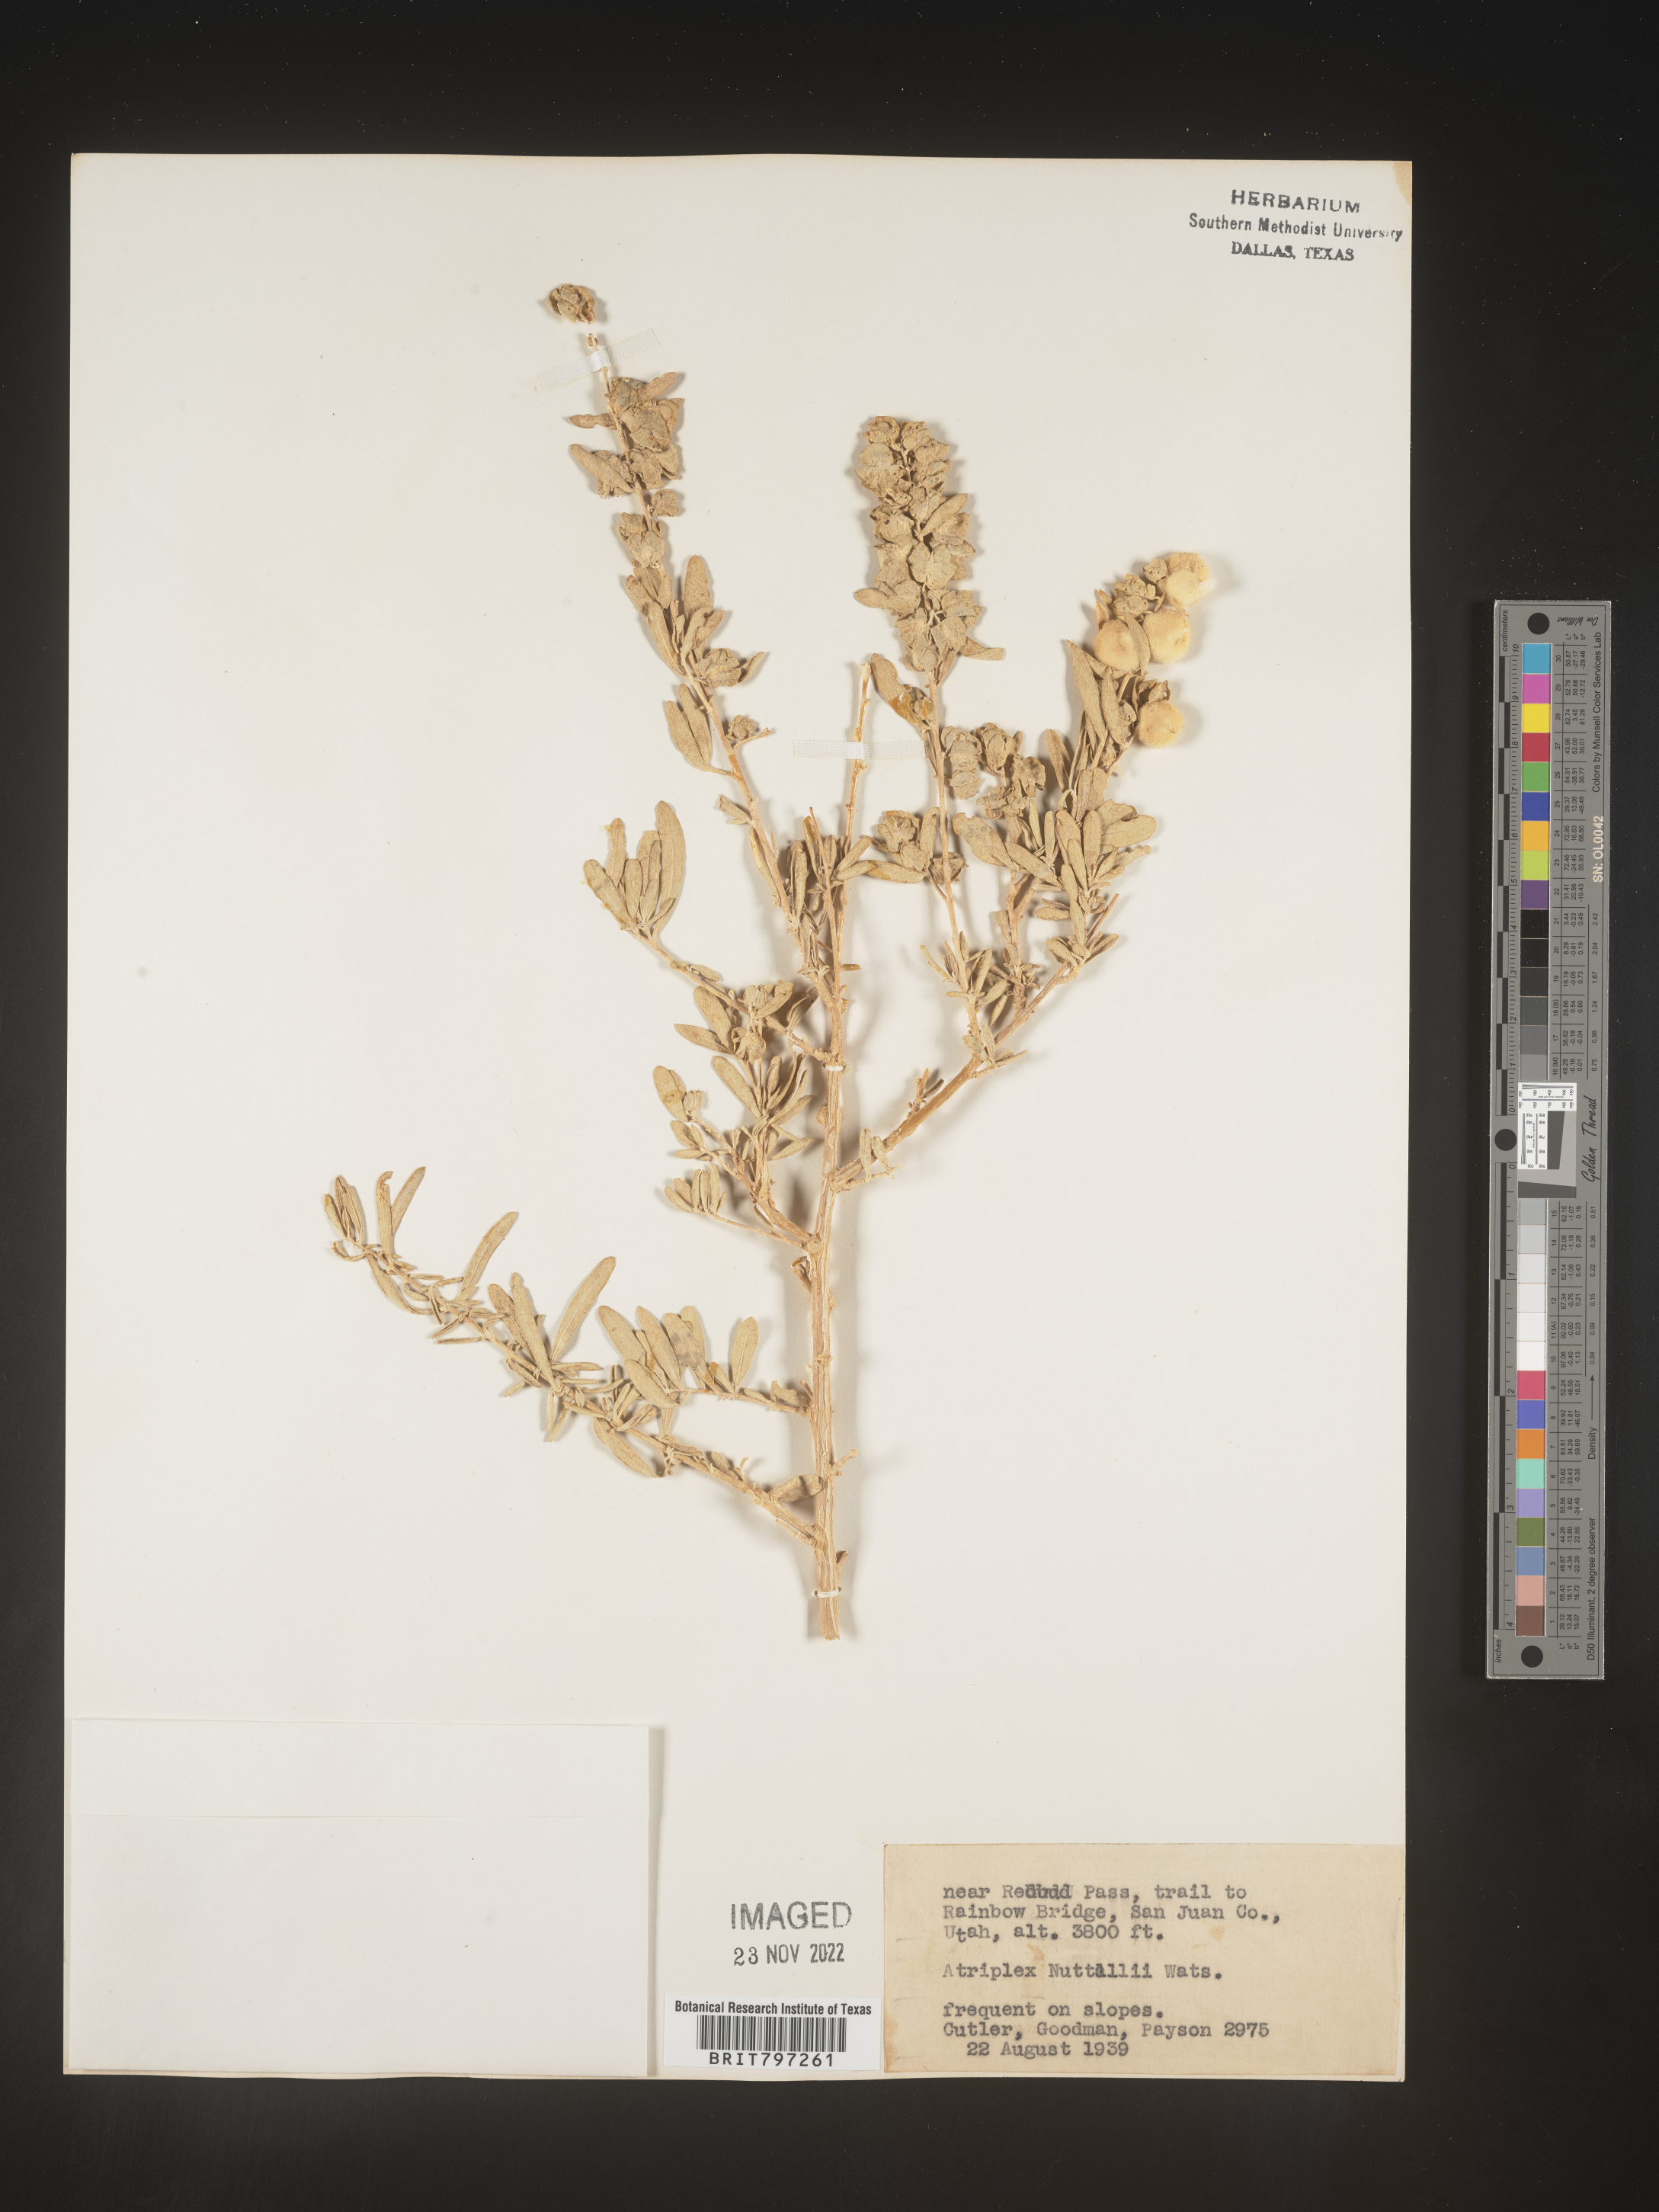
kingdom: Plantae
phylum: Tracheophyta
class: Magnoliopsida
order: Caryophyllales
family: Amaranthaceae
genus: Atriplex
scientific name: Atriplex
